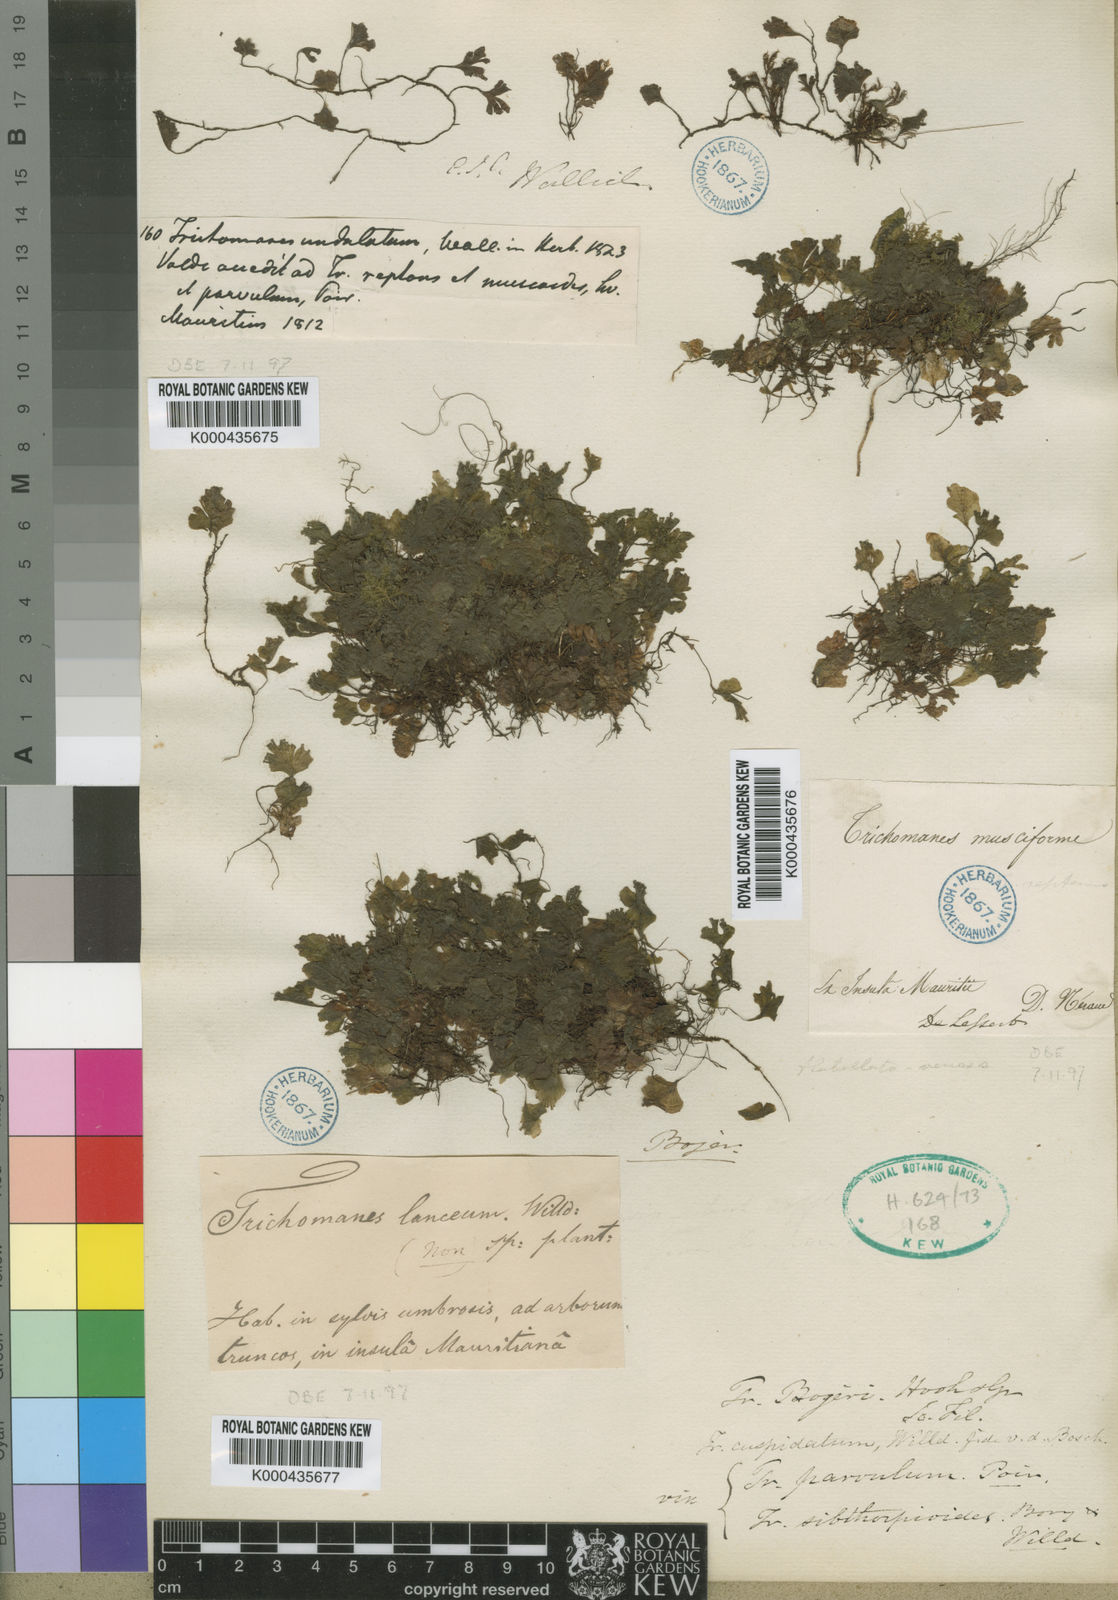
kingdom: Plantae
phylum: Tracheophyta
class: Polypodiopsida
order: Hymenophyllales
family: Hymenophyllaceae
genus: Didymoglossum
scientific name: Didymoglossum cuspidatum
